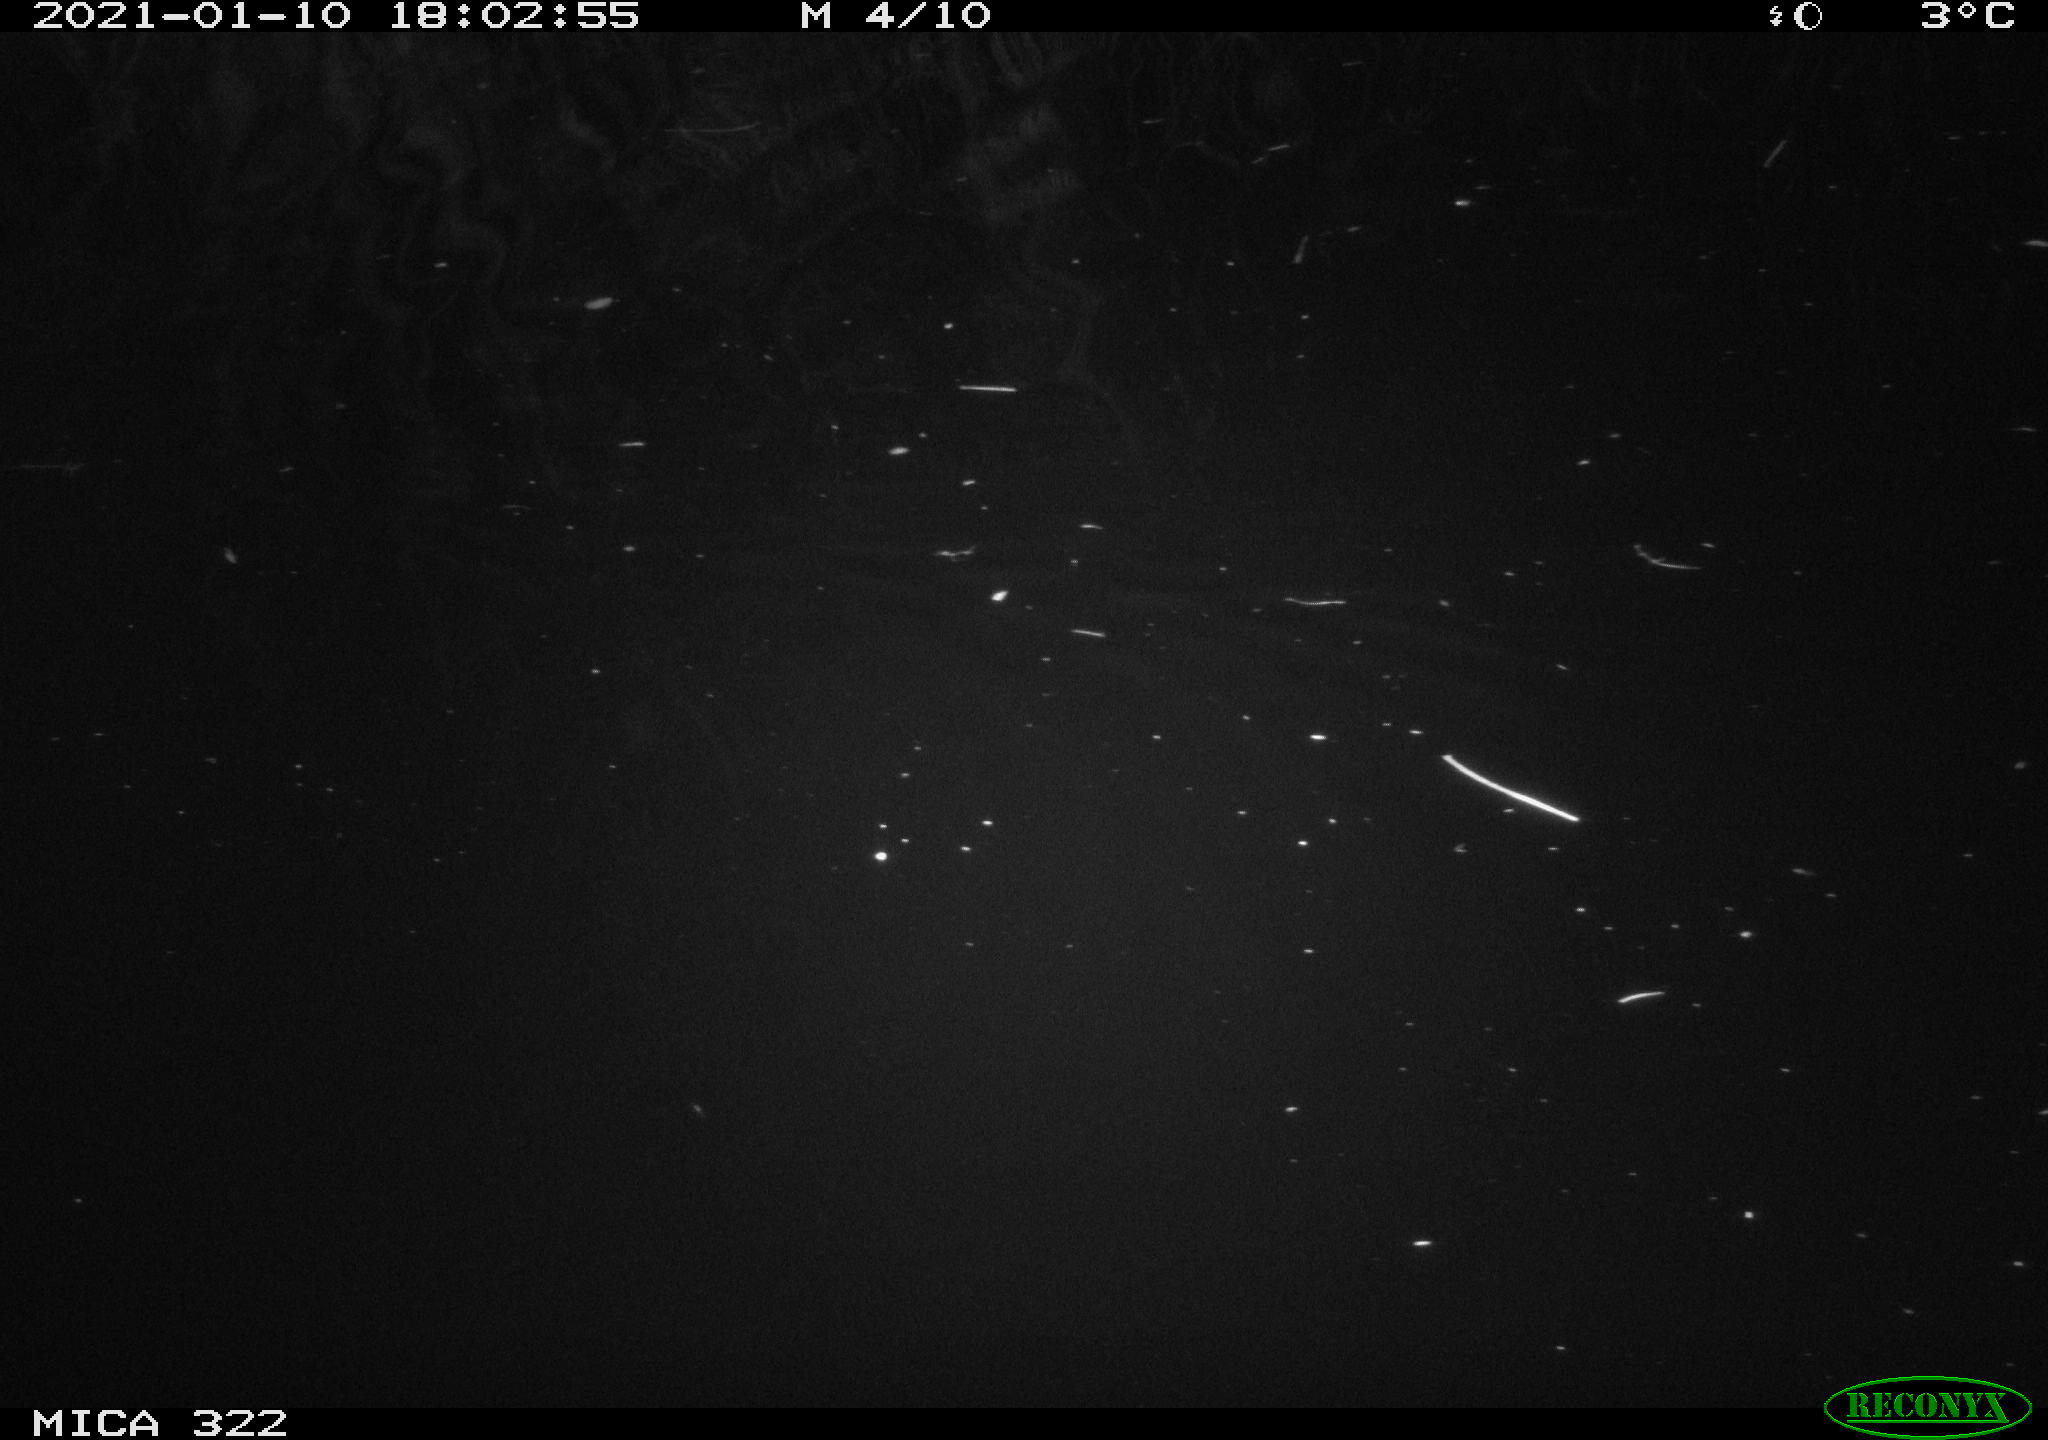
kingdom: Animalia
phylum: Chordata
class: Mammalia
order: Rodentia
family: Muridae
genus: Rattus
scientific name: Rattus norvegicus
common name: Brown rat
